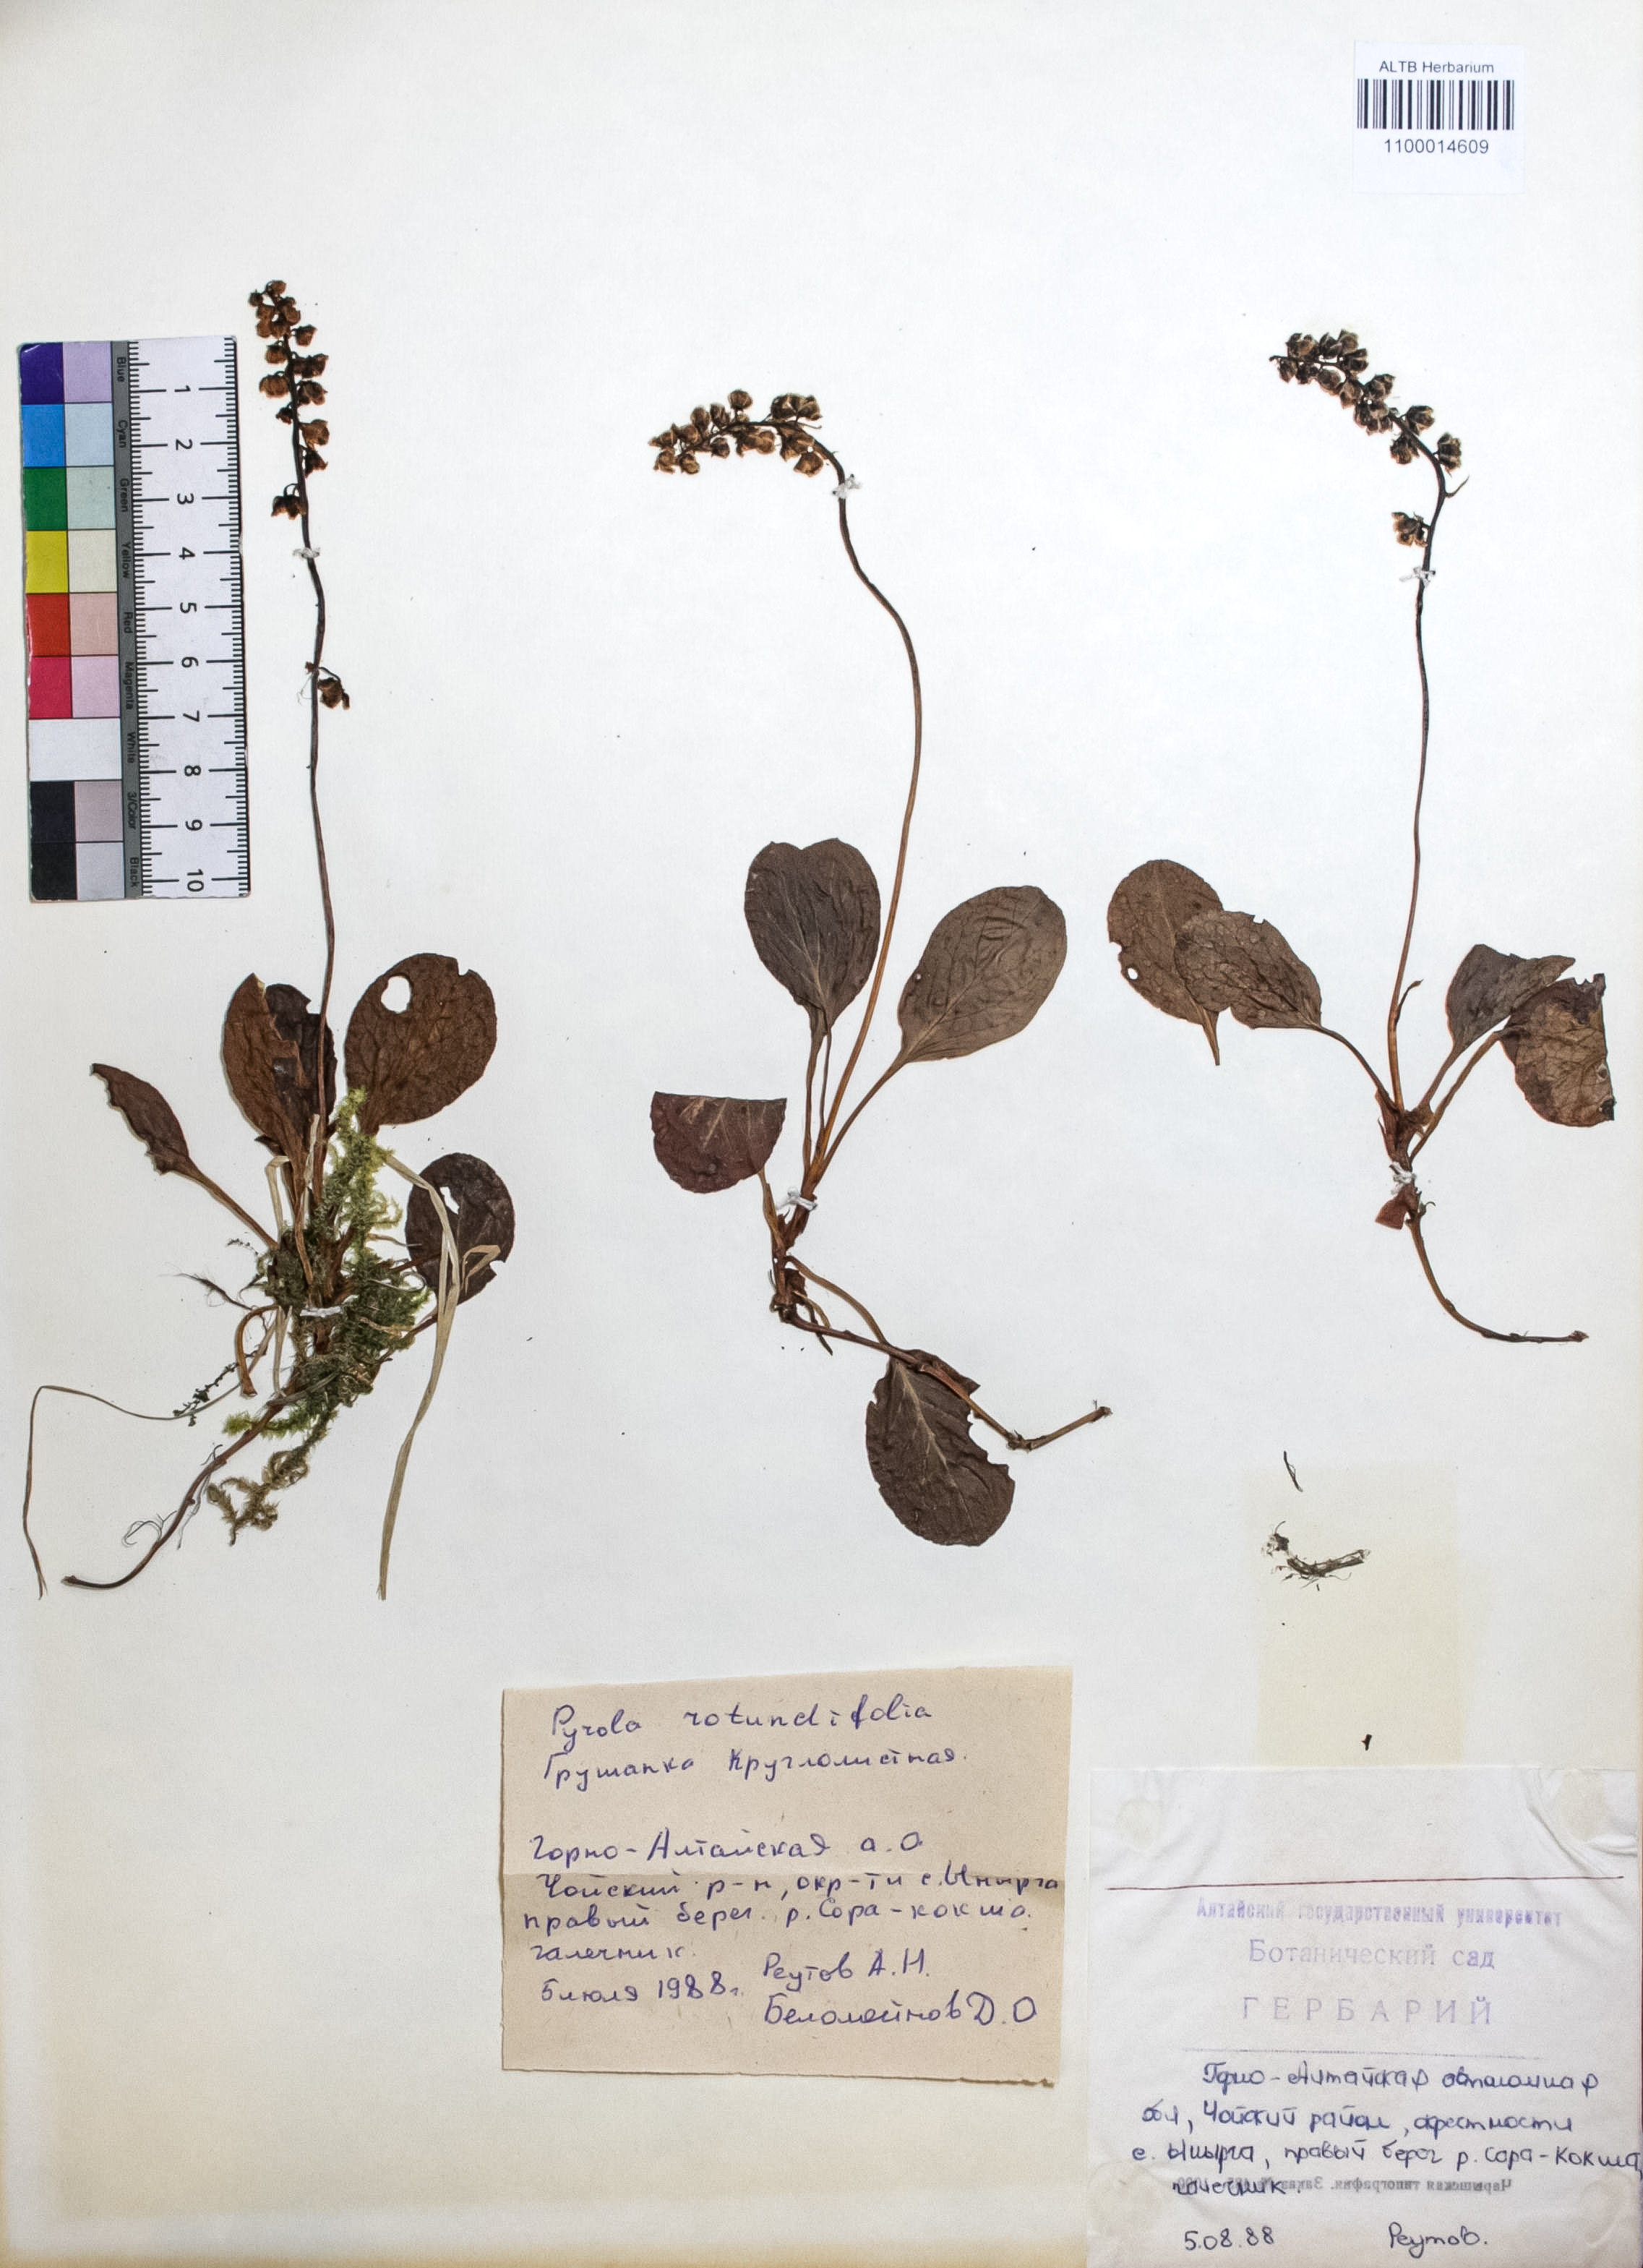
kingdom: Plantae
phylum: Tracheophyta
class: Magnoliopsida
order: Ericales
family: Ericaceae
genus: Pyrola
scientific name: Pyrola rotundifolia
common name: Round-leaved wintergreen
